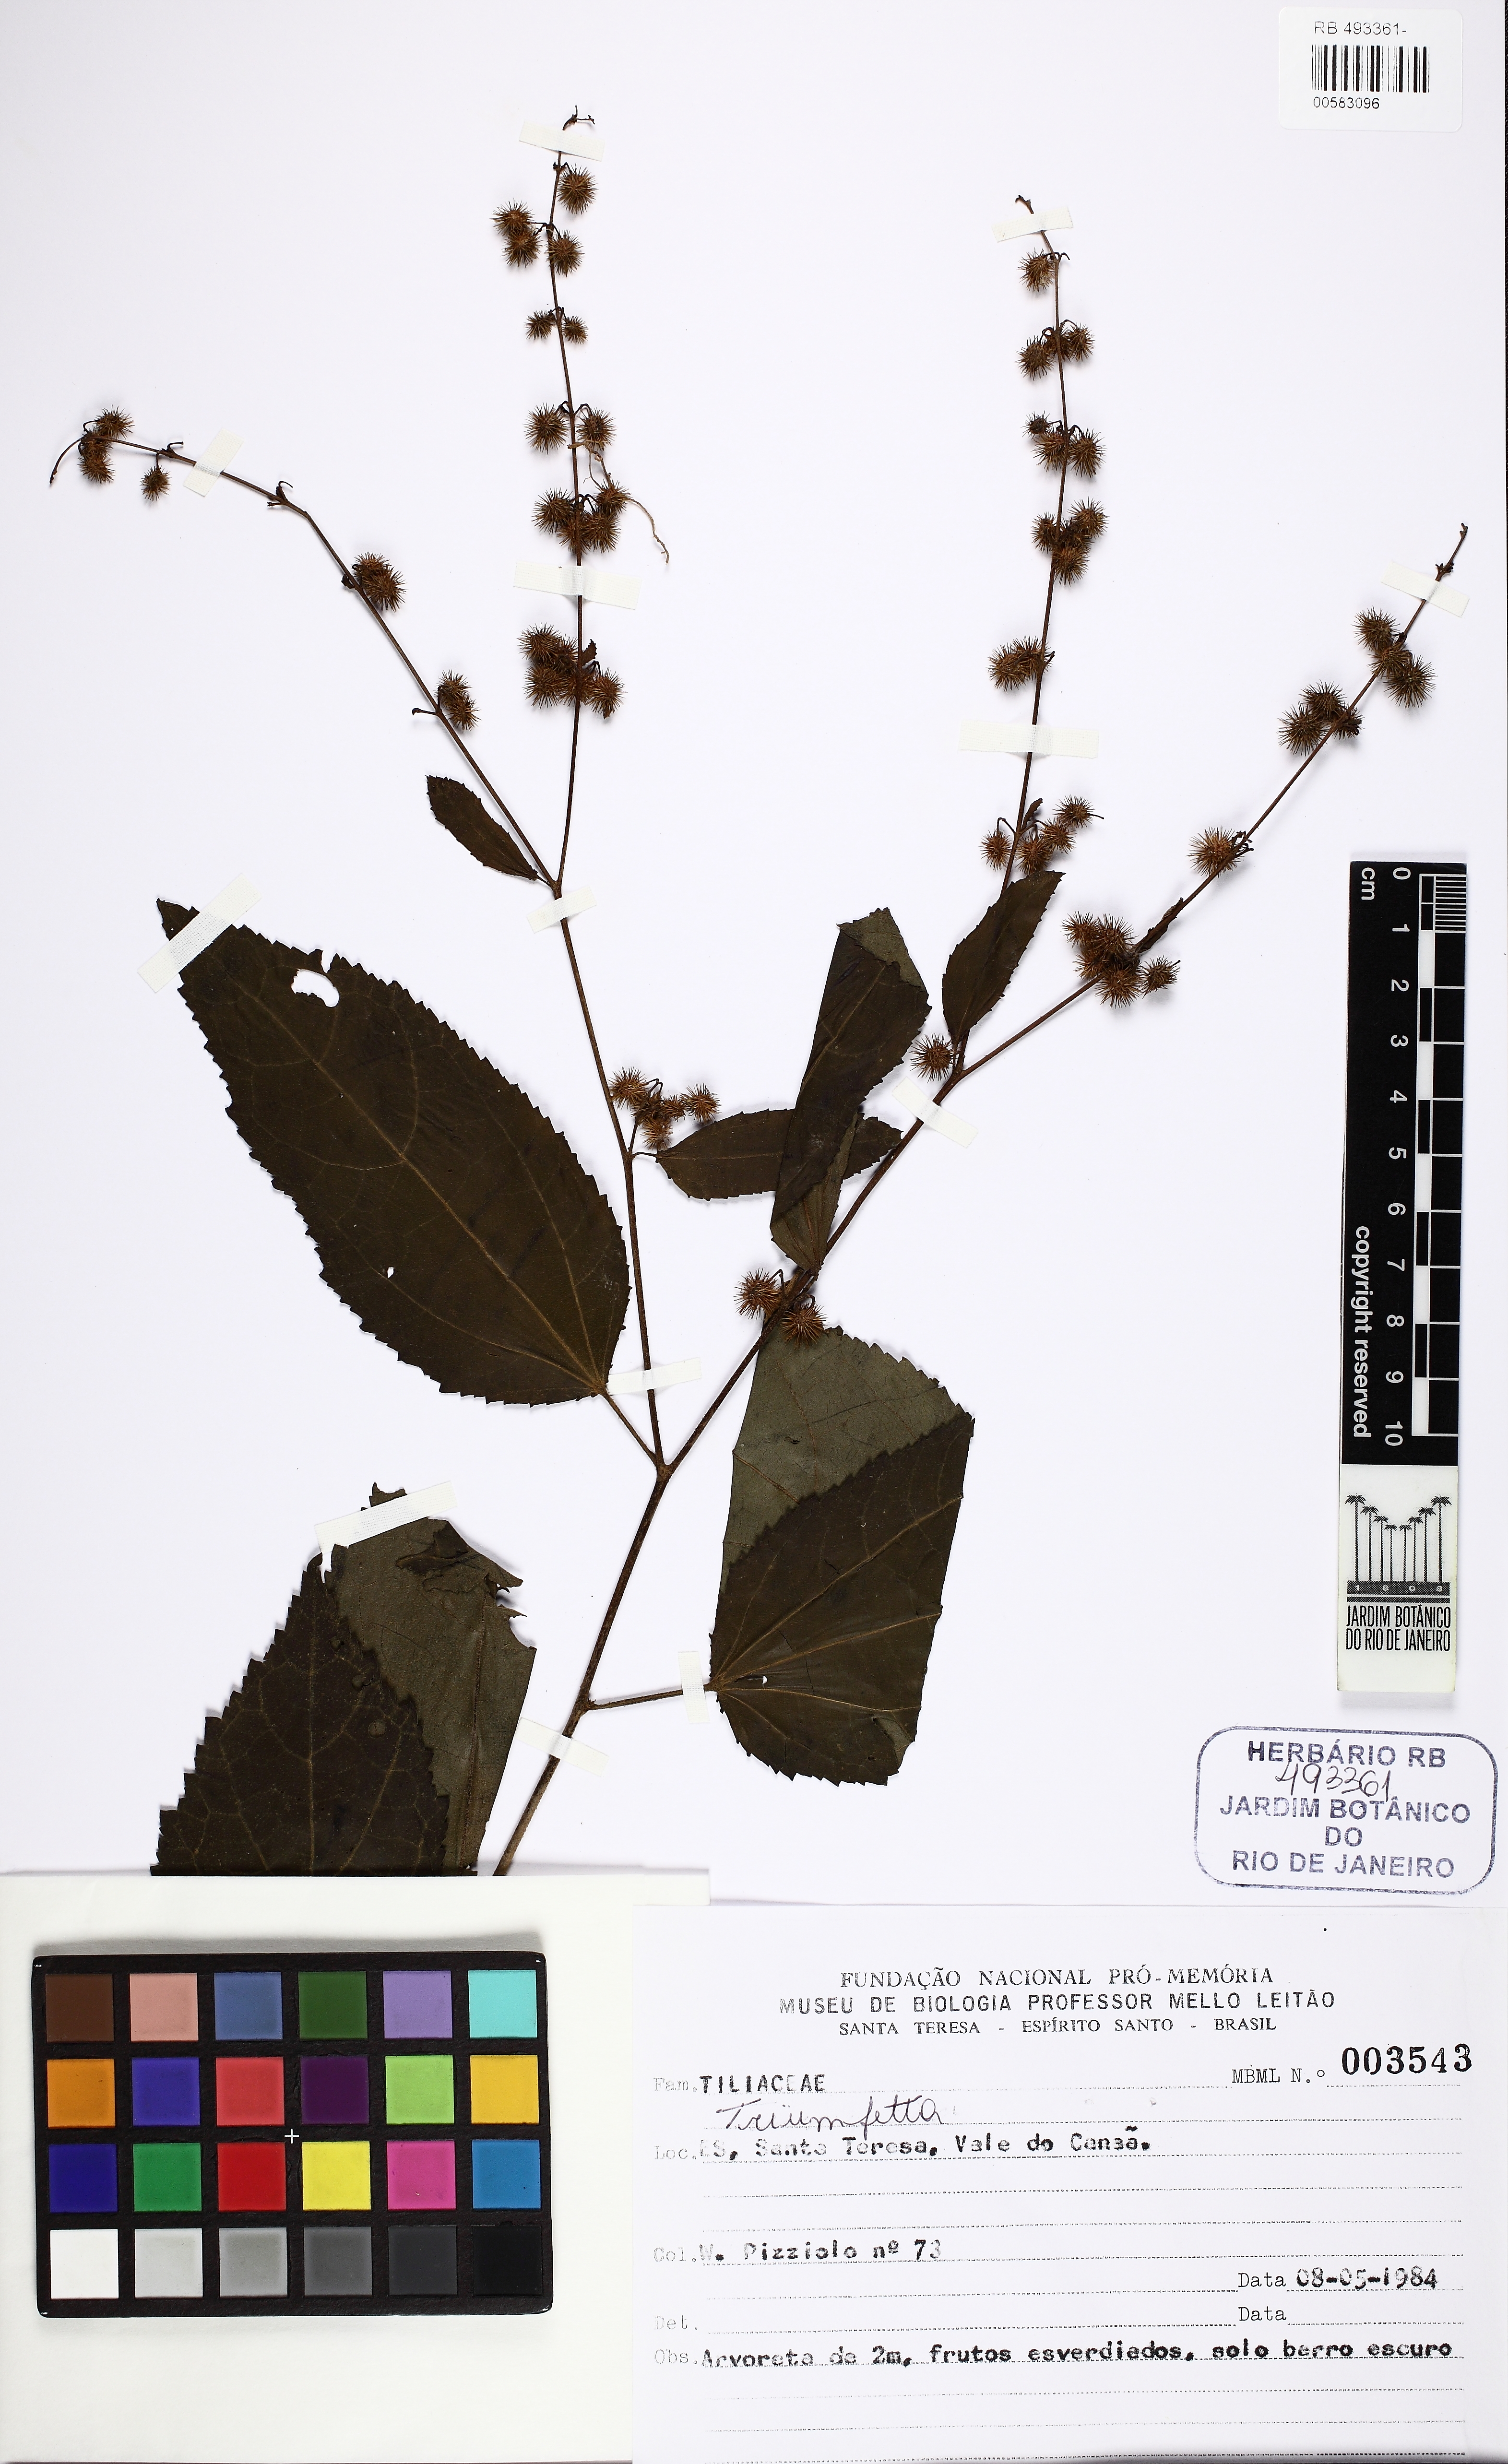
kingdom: Plantae
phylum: Tracheophyta
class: Magnoliopsida
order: Malvales
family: Malvaceae
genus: Triumfetta
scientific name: Triumfetta
